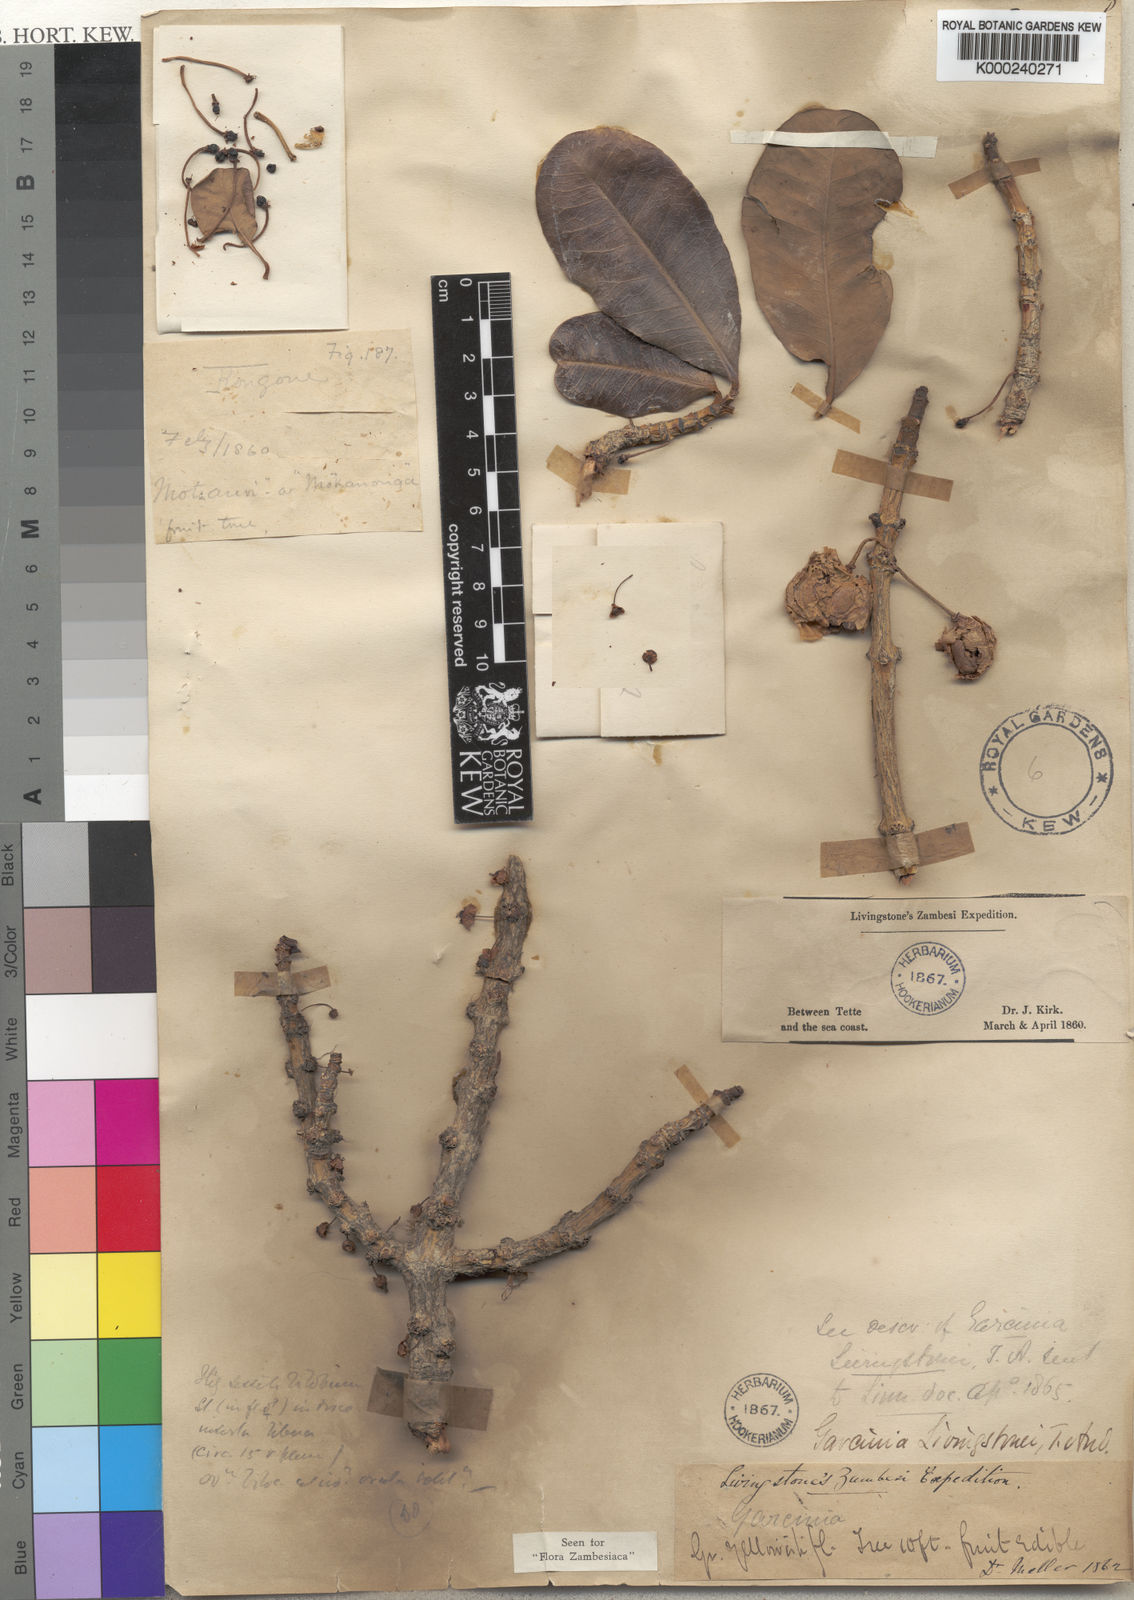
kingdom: Plantae
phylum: Tracheophyta
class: Magnoliopsida
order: Malpighiales
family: Clusiaceae
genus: Garcinia
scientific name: Garcinia livingstonei
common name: African mangosteen
